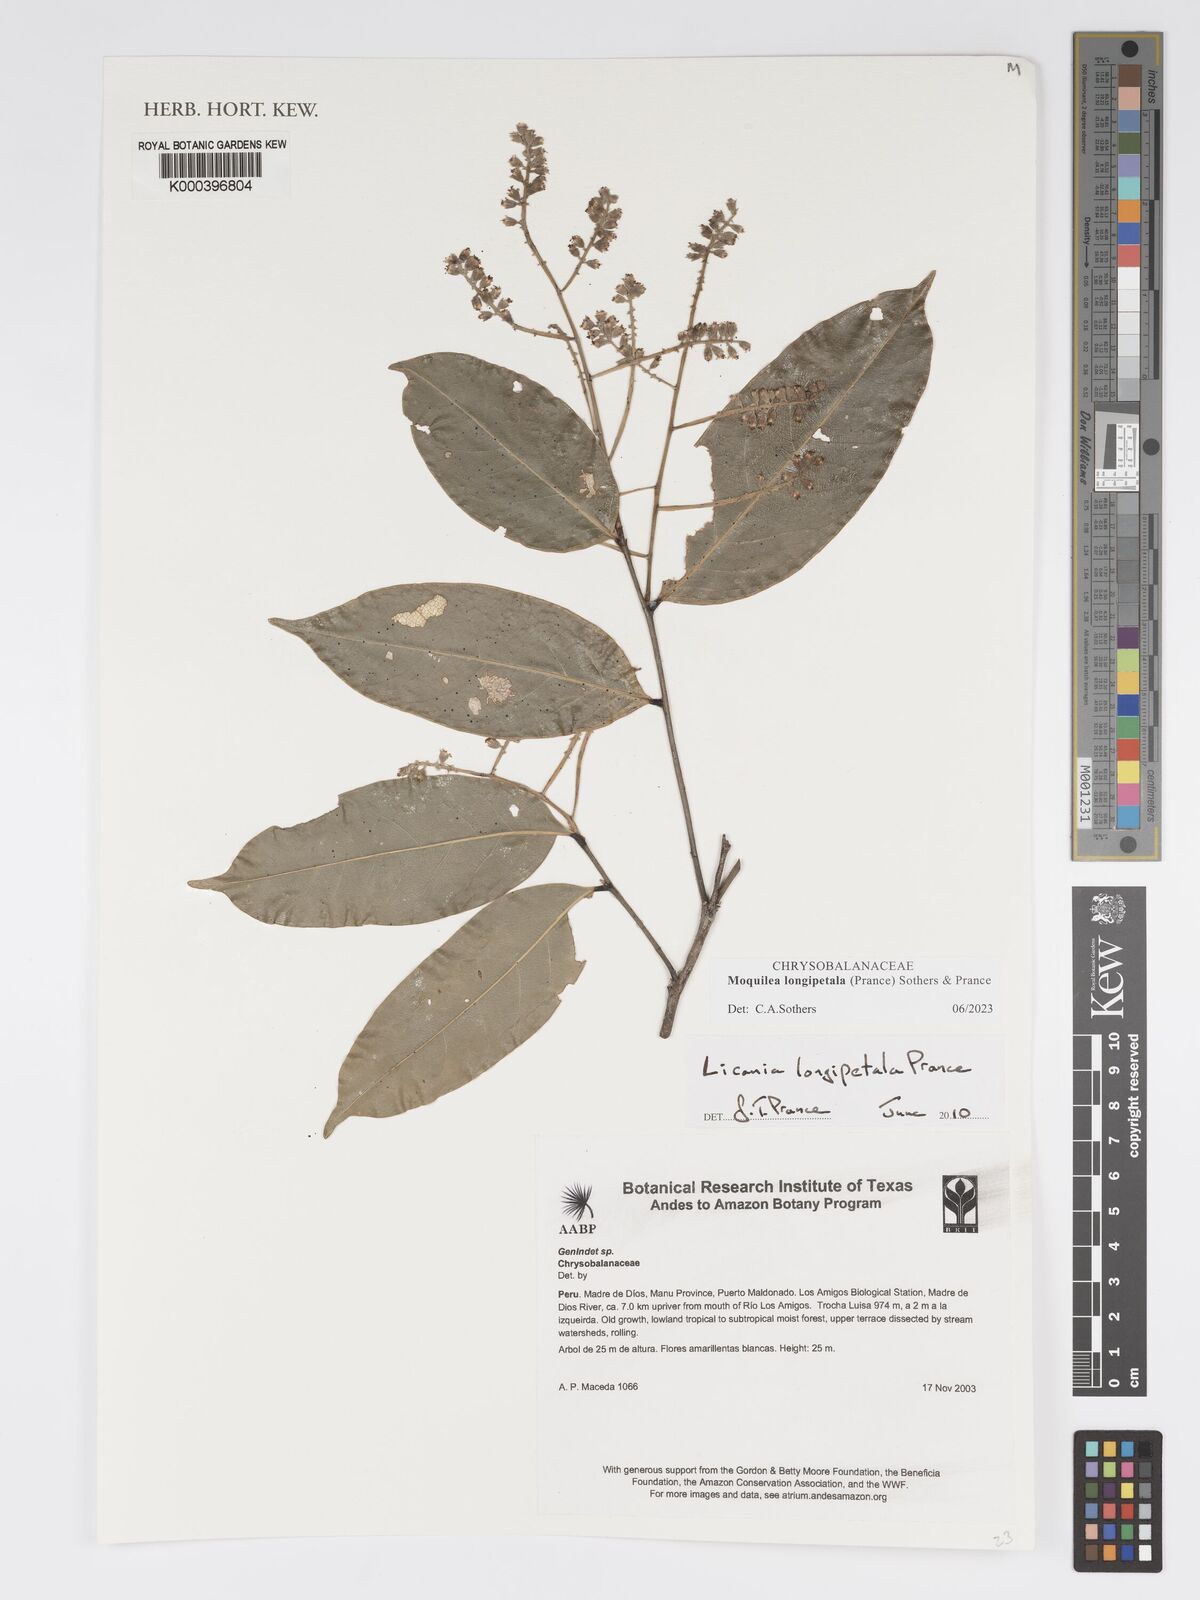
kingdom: Plantae
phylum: Tracheophyta
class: Magnoliopsida
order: Malpighiales
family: Chrysobalanaceae
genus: Moquilea
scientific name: Moquilea longipetala
